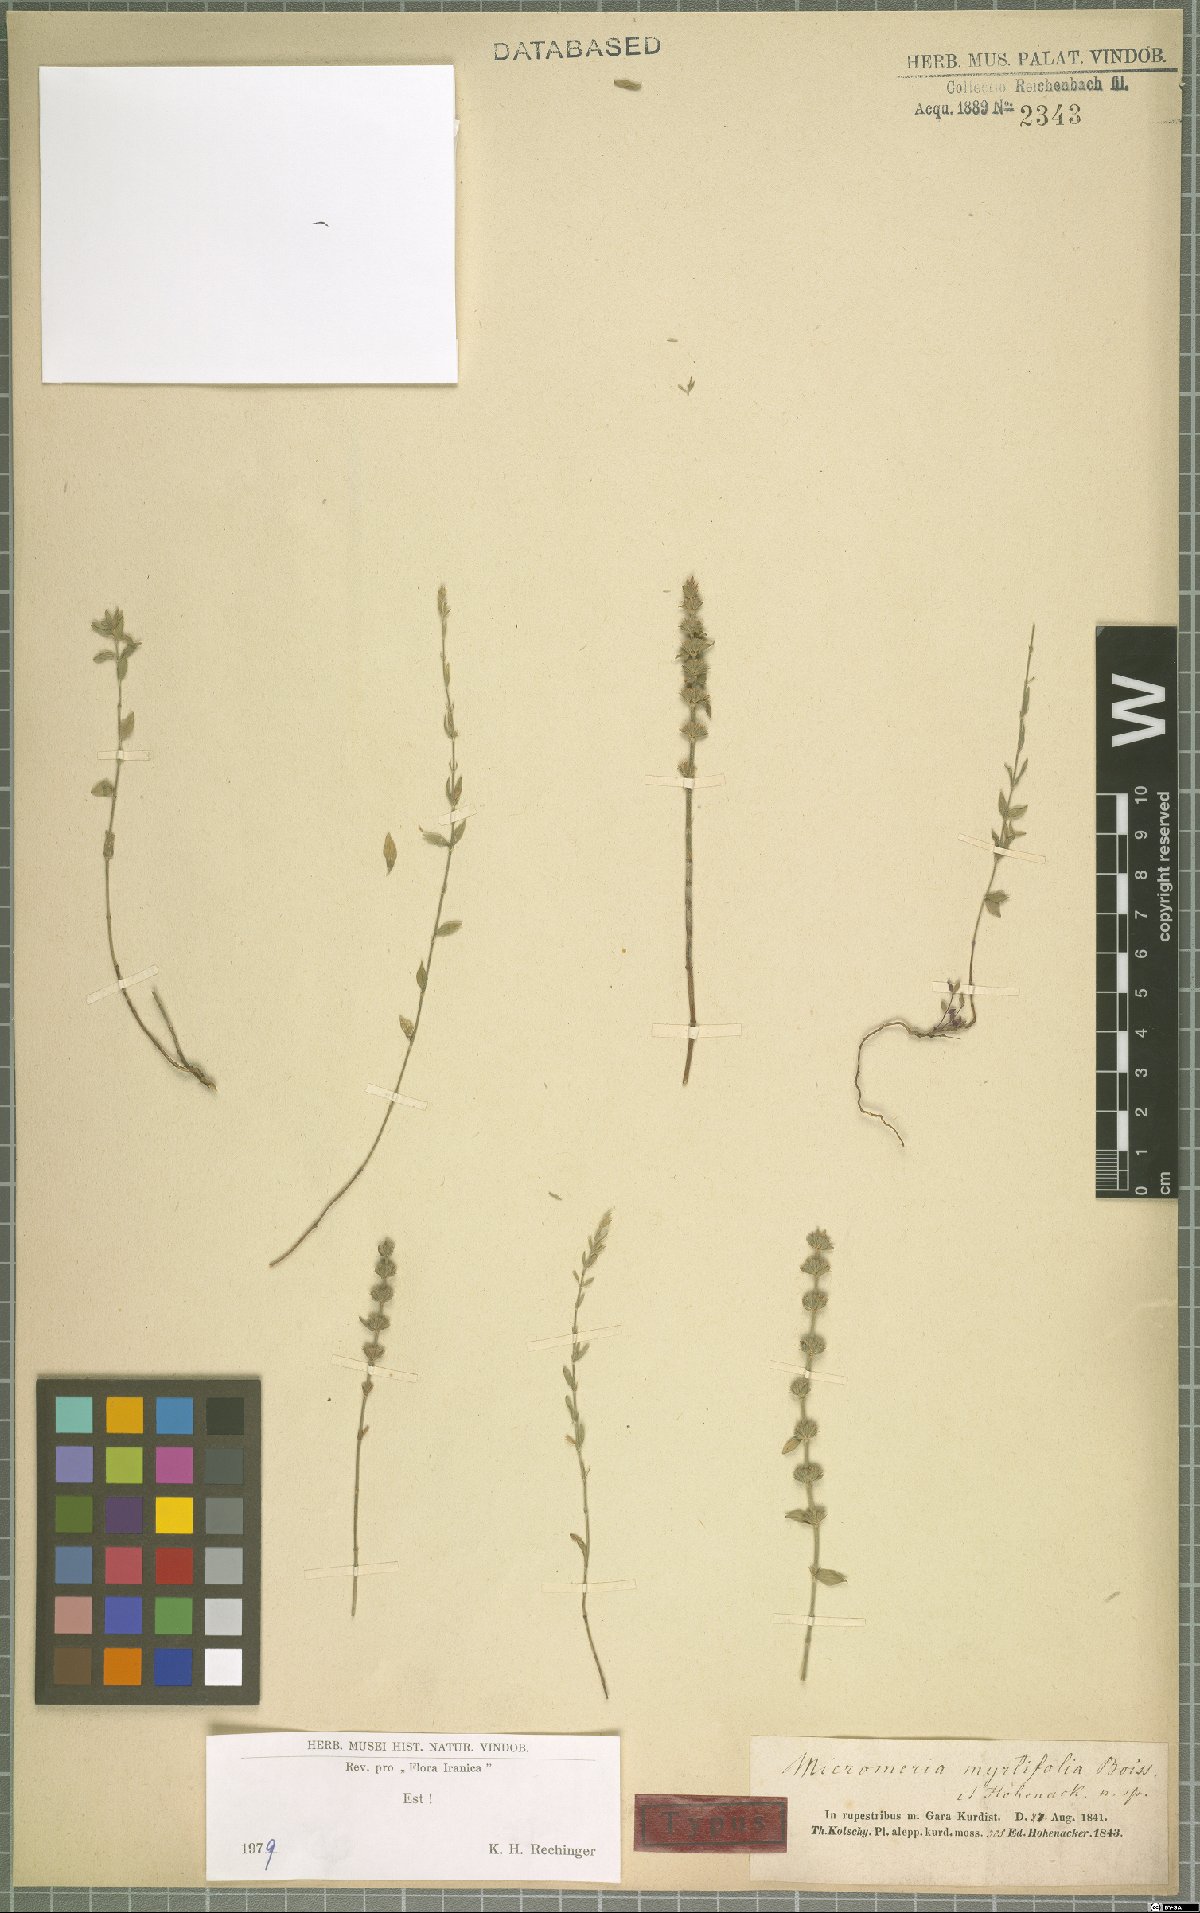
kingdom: Plantae
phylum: Tracheophyta
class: Magnoliopsida
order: Lamiales
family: Lamiaceae
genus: Micromeria
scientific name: Micromeria myrtifolia
